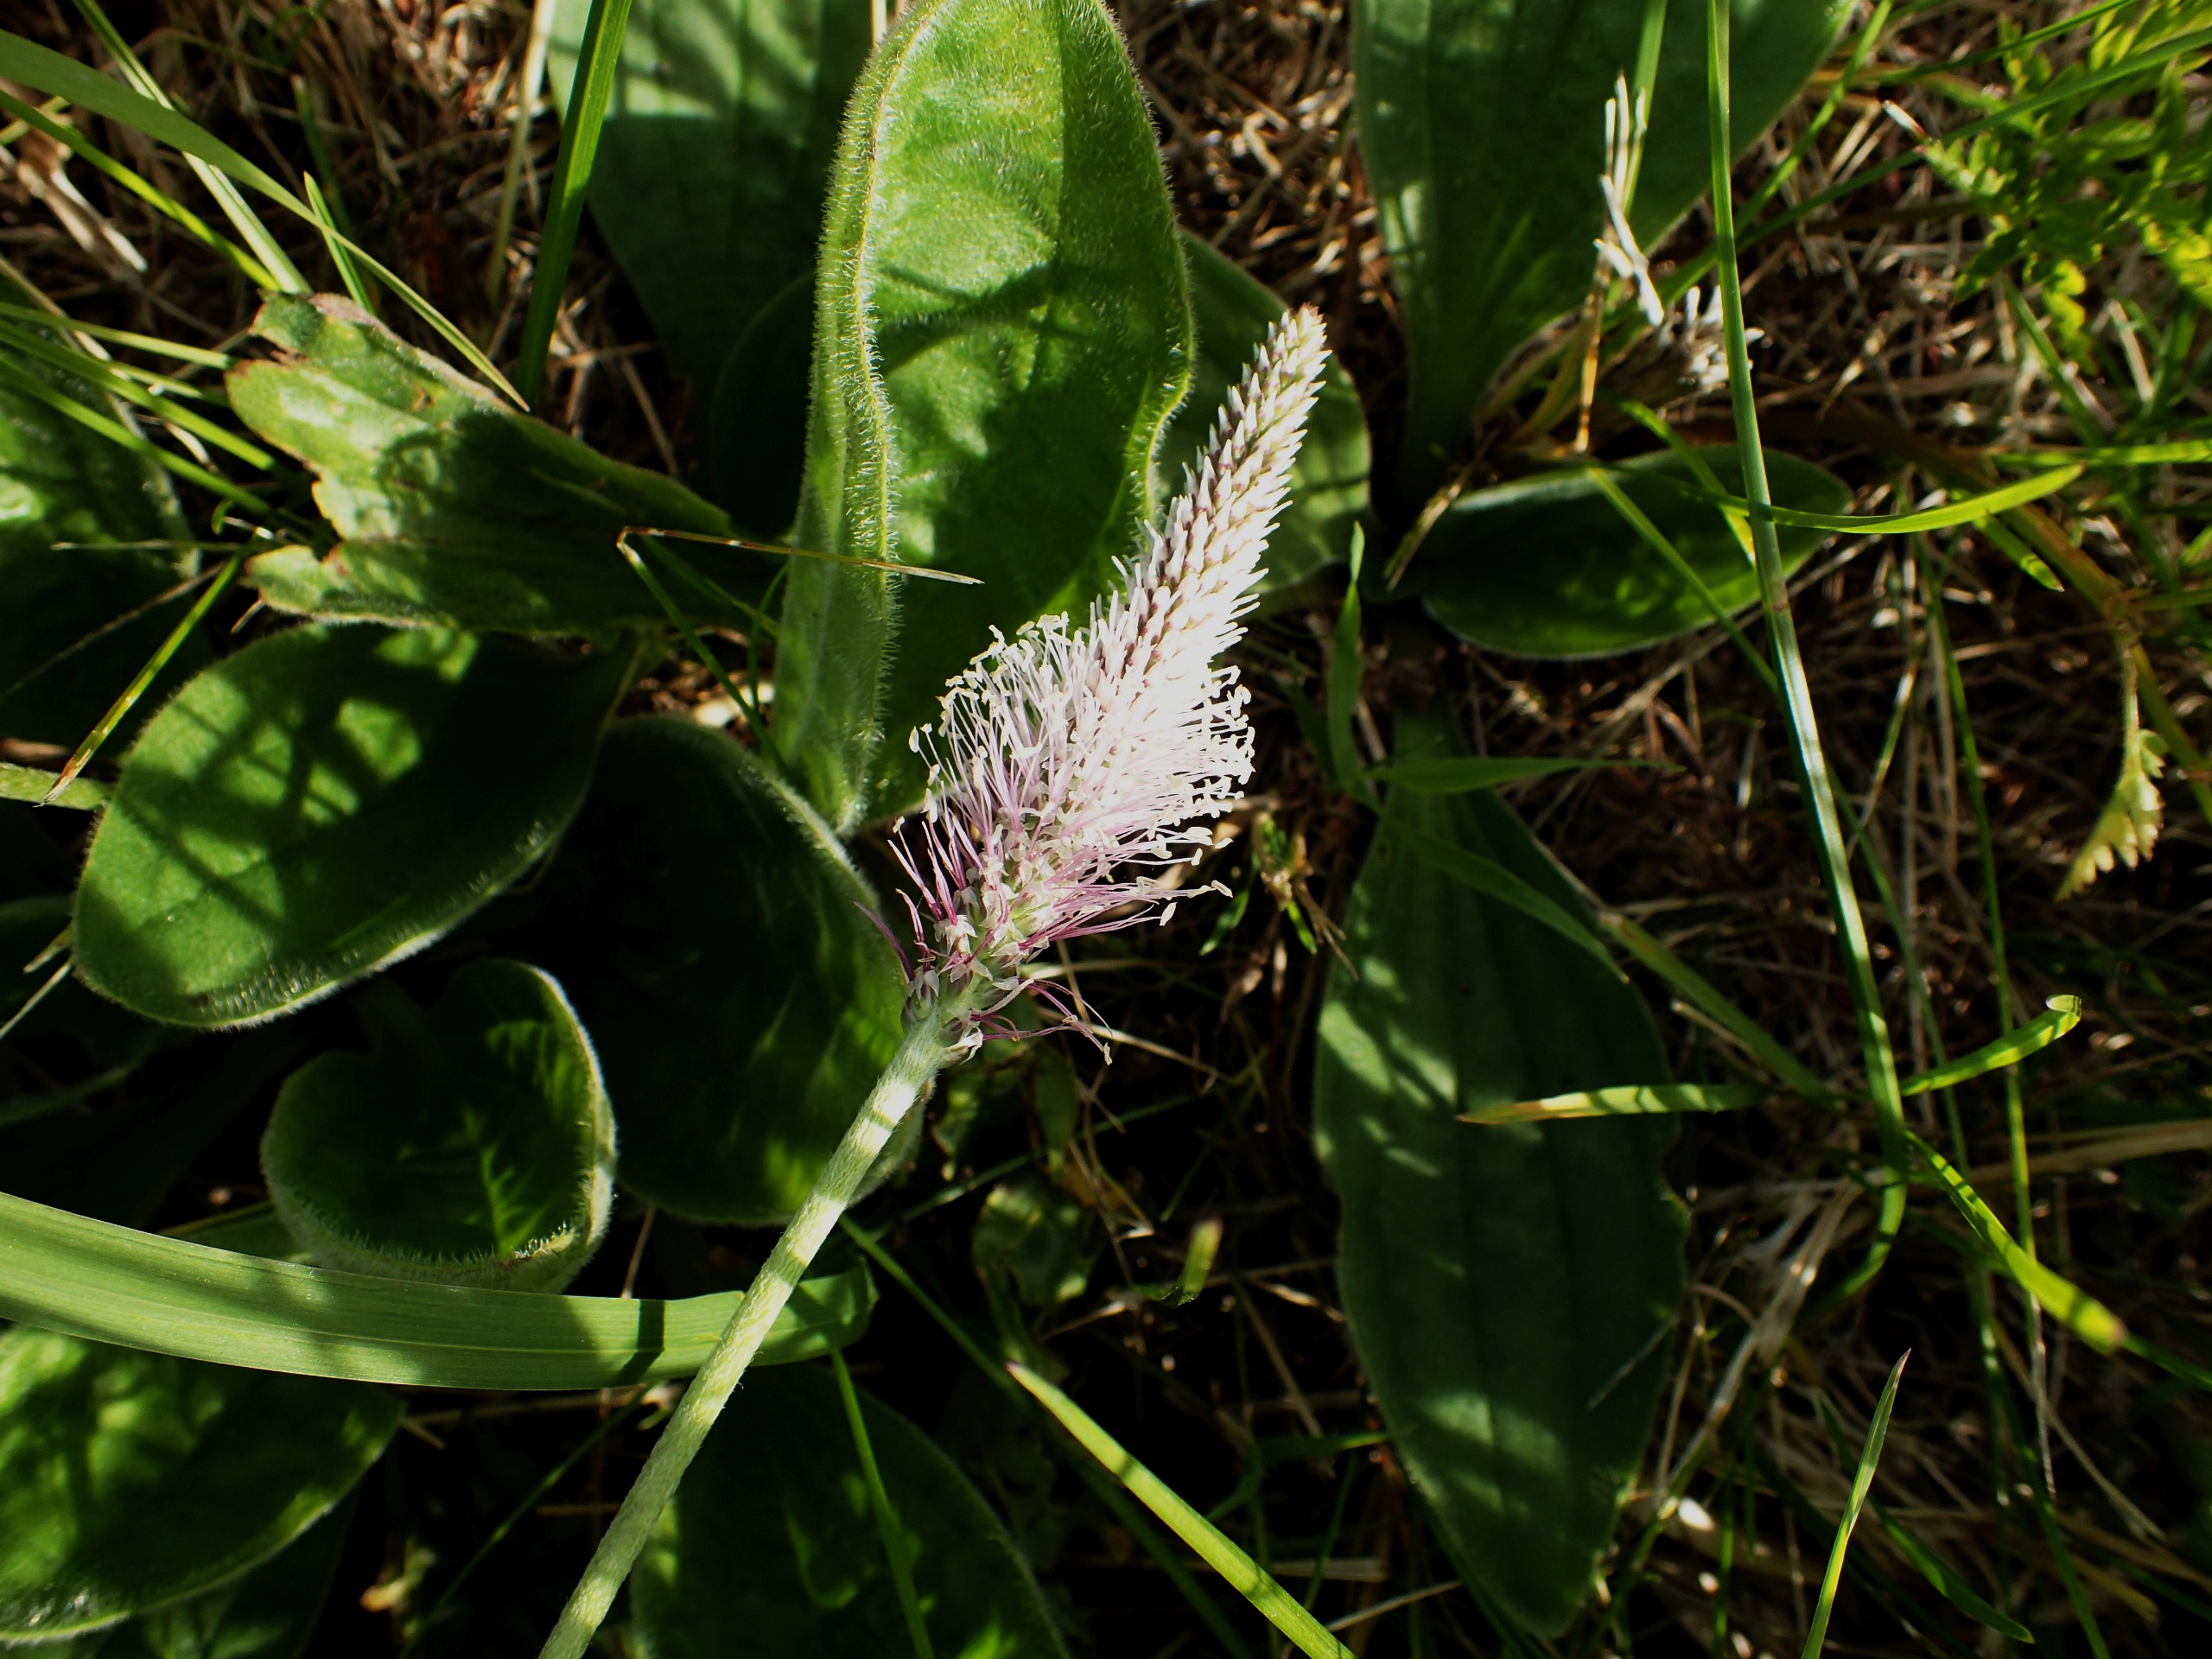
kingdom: Plantae
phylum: Tracheophyta
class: Magnoliopsida
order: Lamiales
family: Plantaginaceae
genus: Plantago
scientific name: Plantago media
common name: Dunet vejbred
